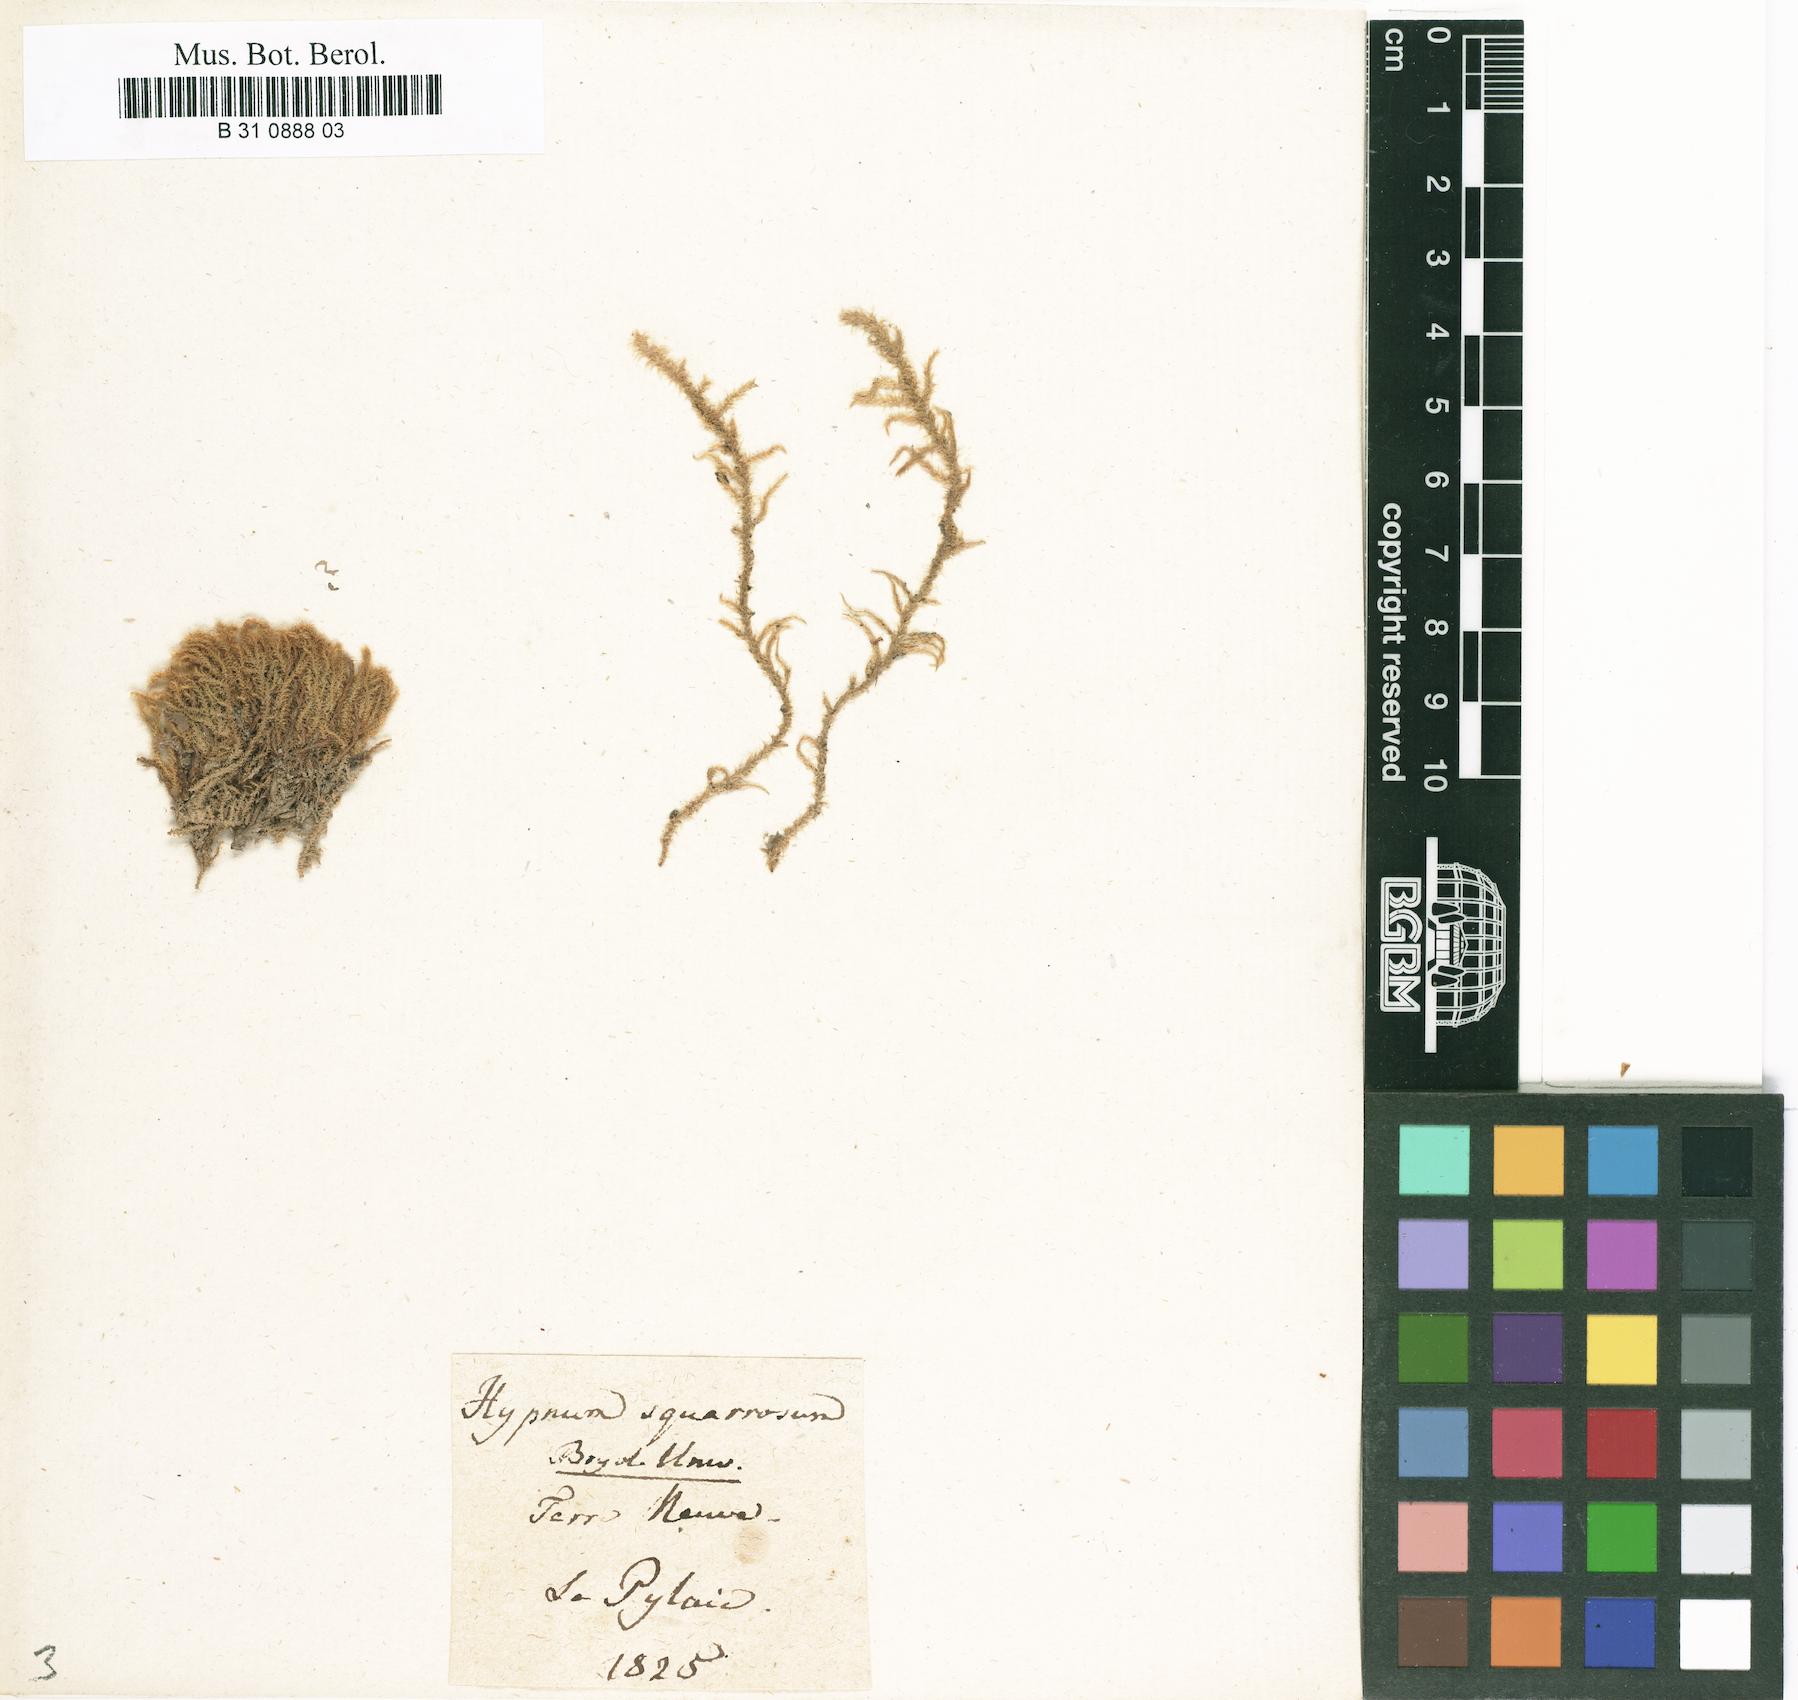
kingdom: Plantae
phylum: Bryophyta
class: Bryopsida
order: Hypnales
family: Hylocomiaceae
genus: Rhytidiadelphus
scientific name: Rhytidiadelphus squarrosus
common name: Springy turf-moss
